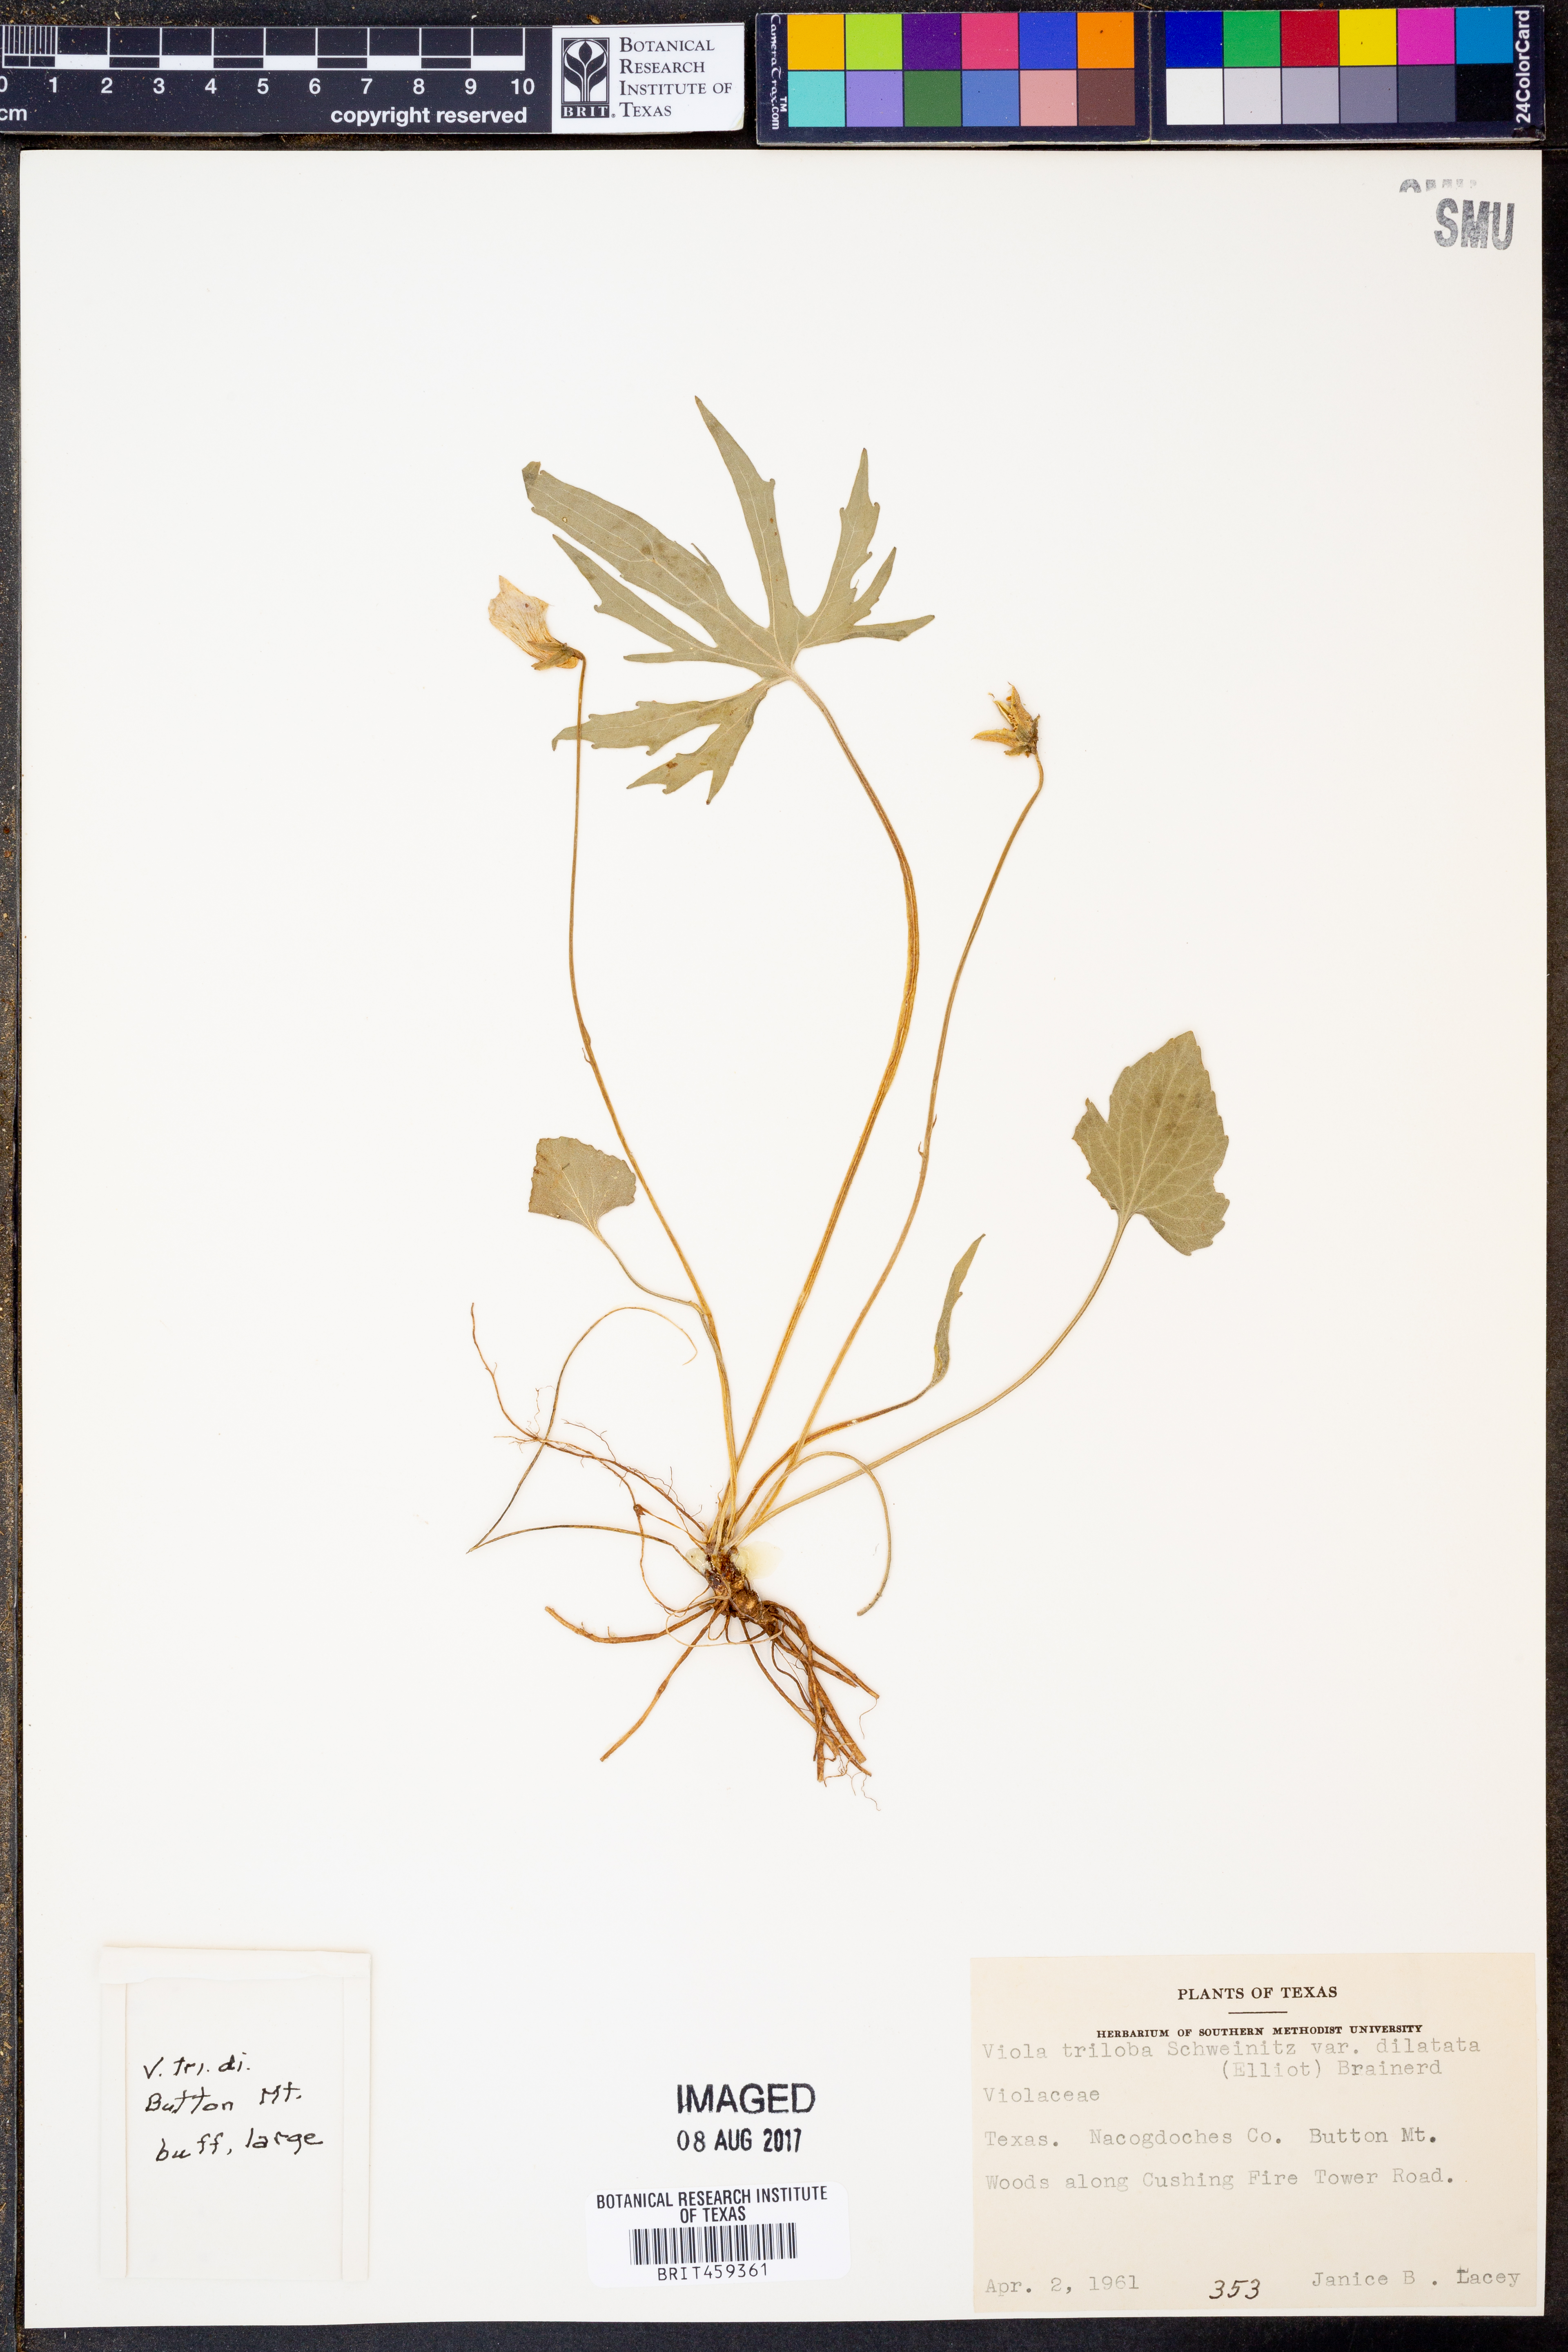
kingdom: Plantae
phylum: Tracheophyta
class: Magnoliopsida
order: Malpighiales
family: Violaceae
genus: Viola
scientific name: Viola palmata
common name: Early blue violet
